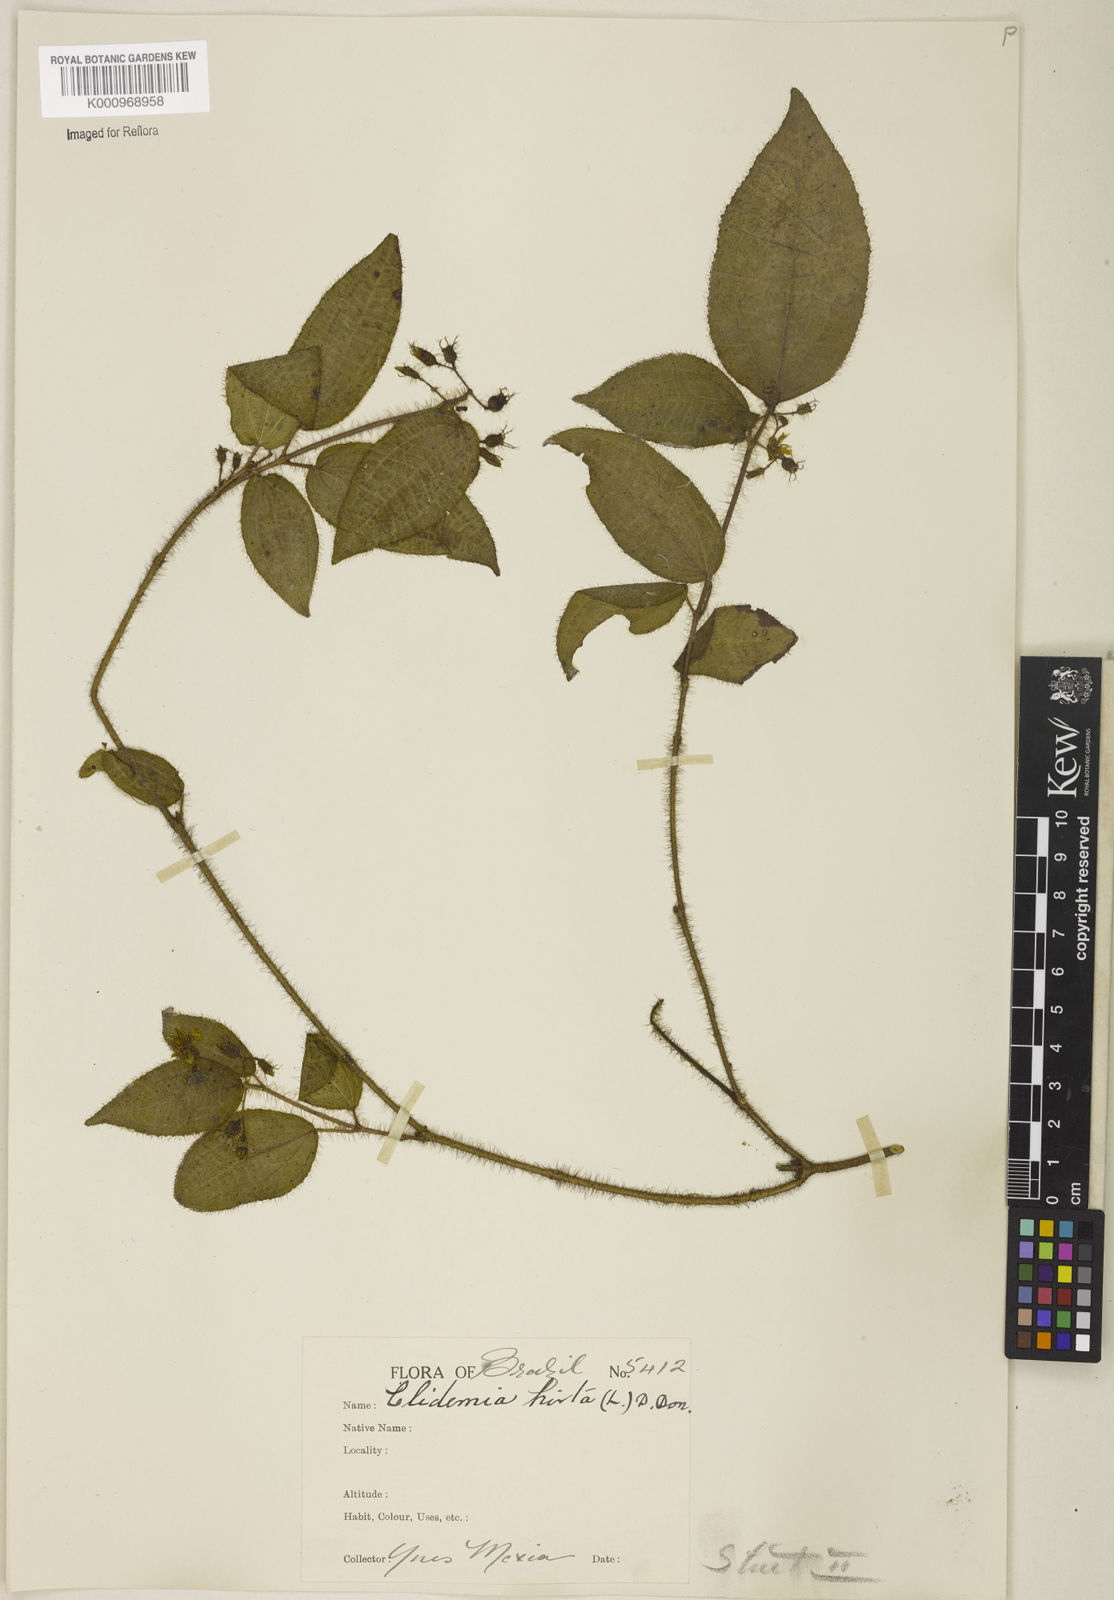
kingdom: Plantae
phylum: Tracheophyta
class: Magnoliopsida
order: Myrtales
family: Melastomataceae
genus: Miconia
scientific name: Miconia crenata
